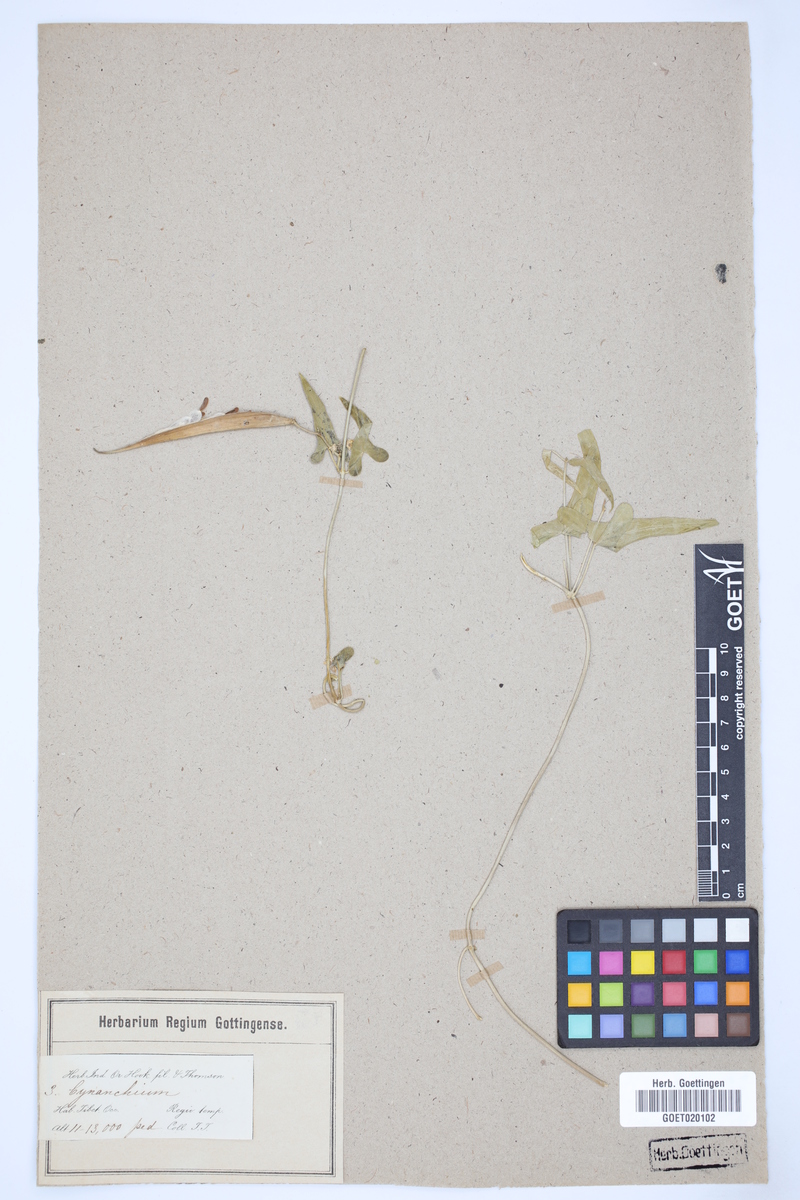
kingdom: Plantae
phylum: Tracheophyta
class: Magnoliopsida
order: Gentianales
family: Apocynaceae
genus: Cynanchum
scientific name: Cynanchum acutum
